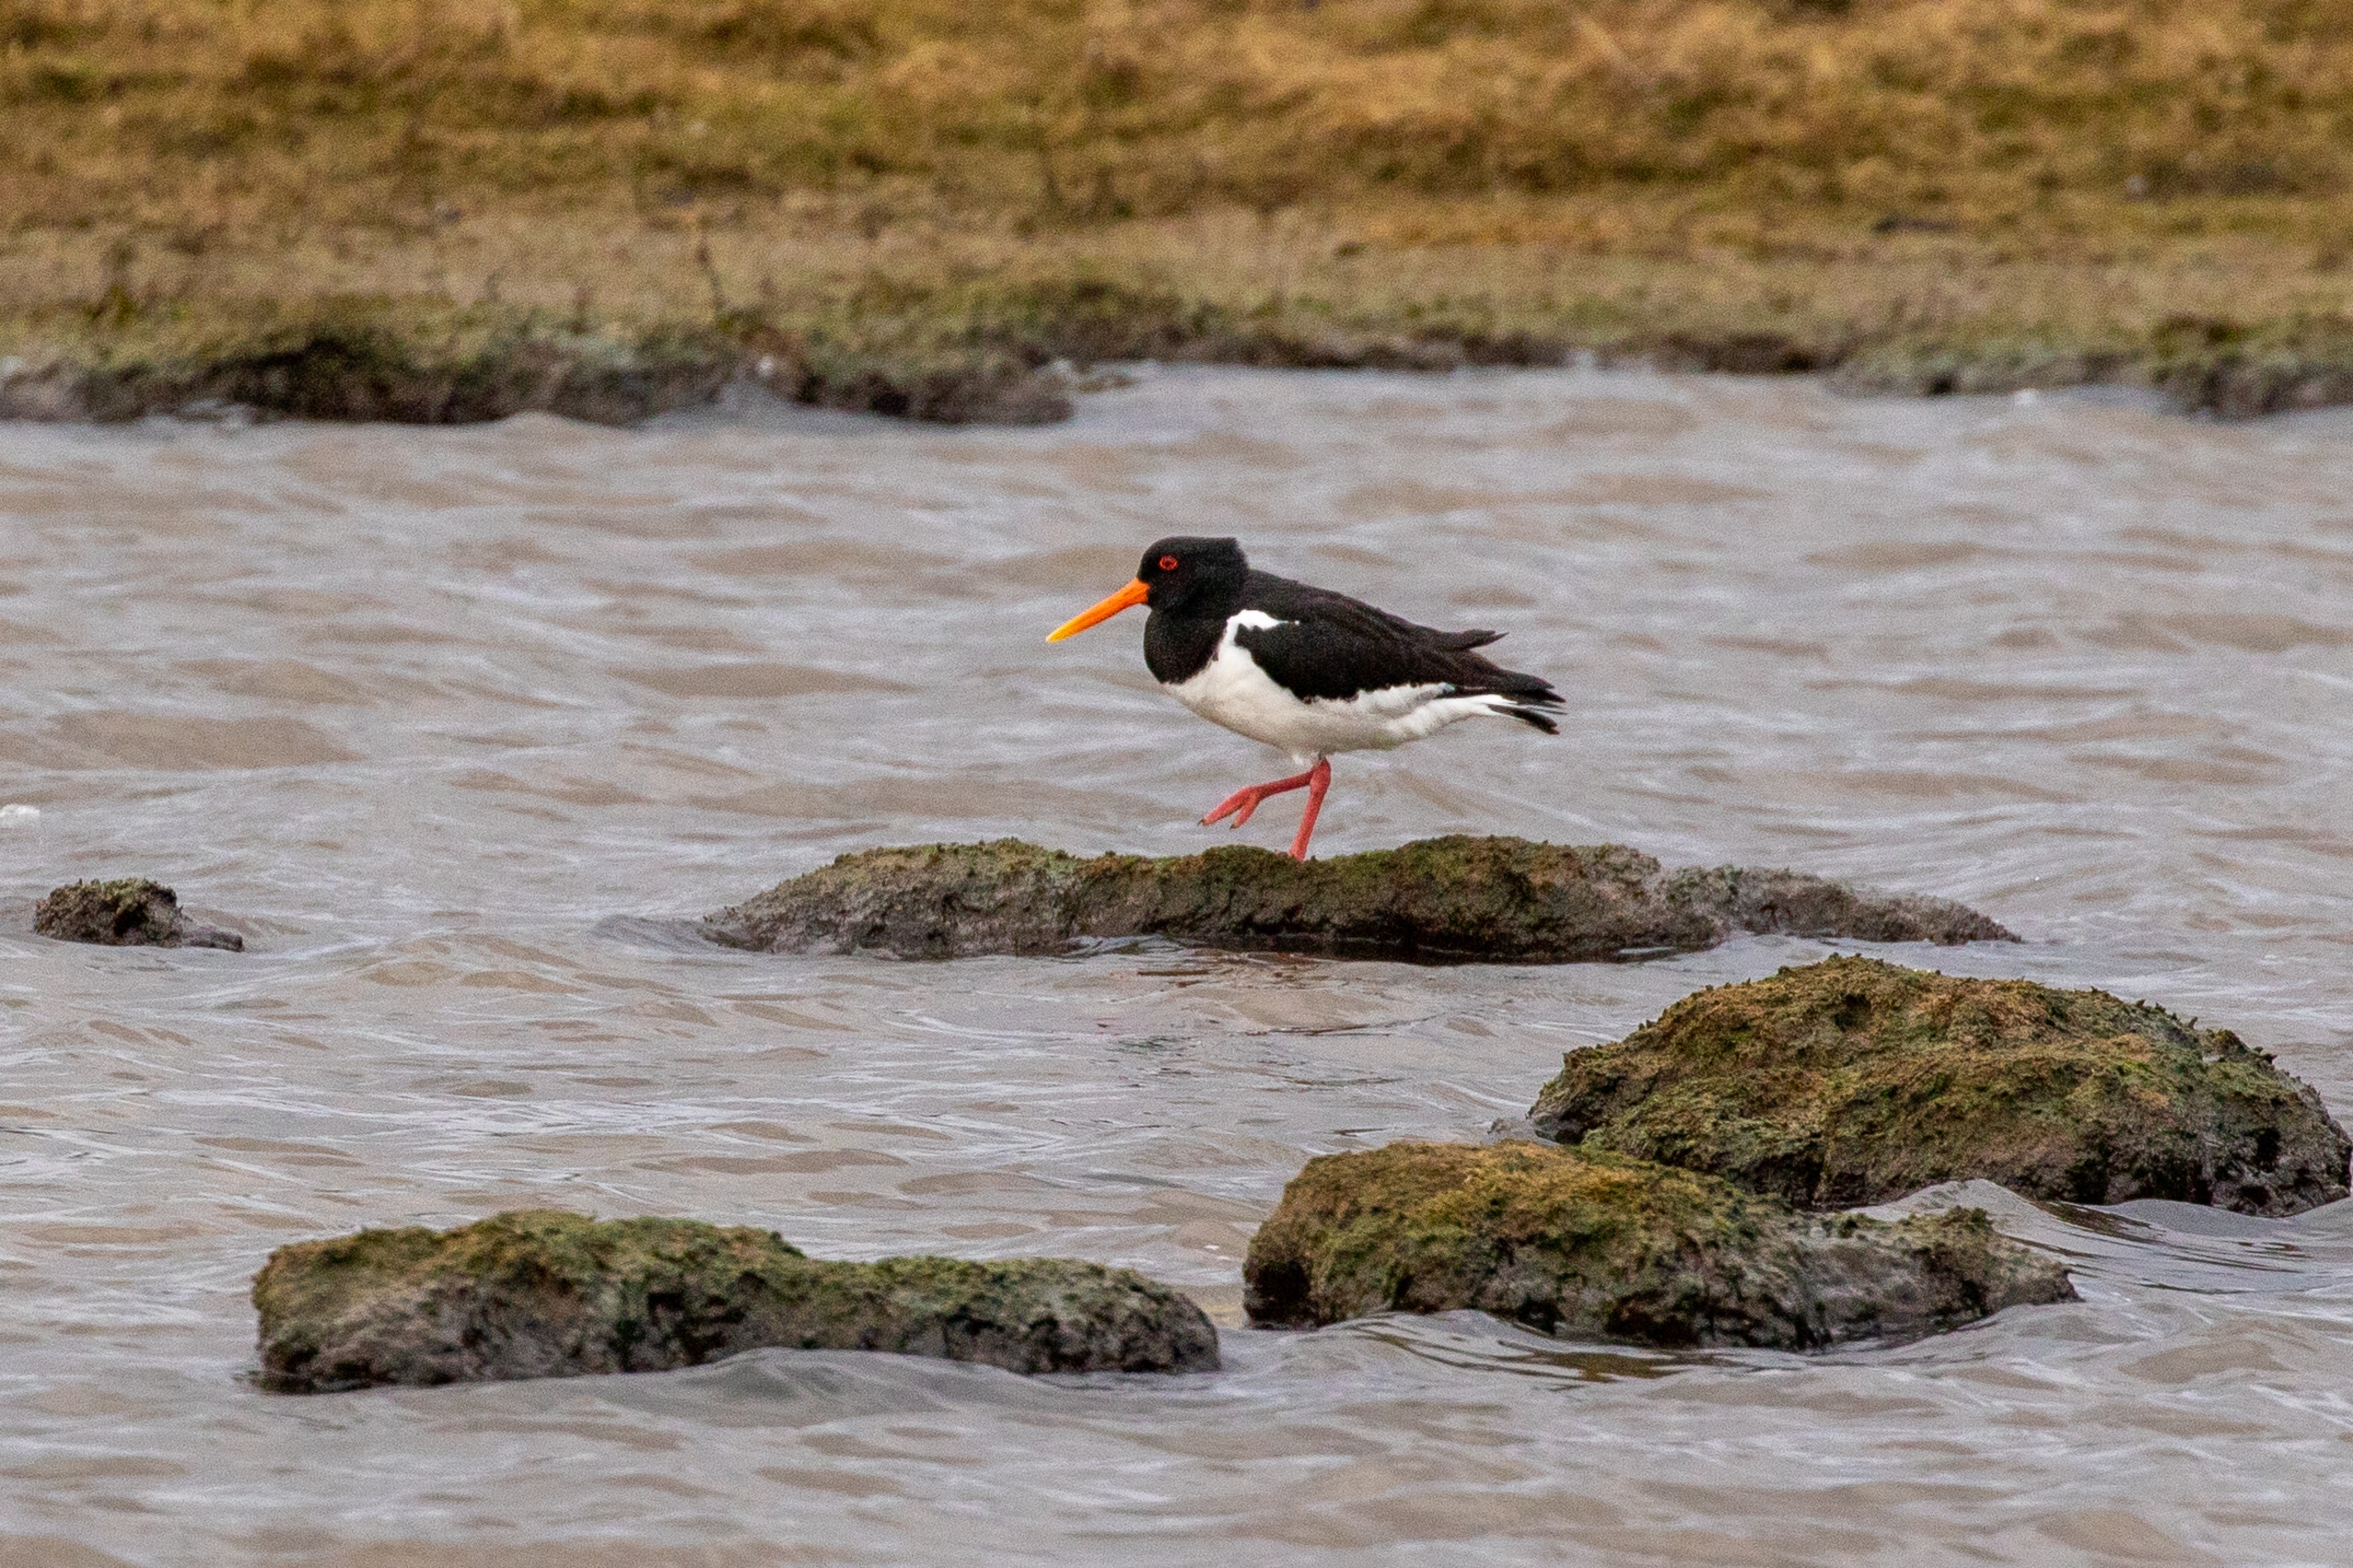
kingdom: Animalia
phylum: Chordata
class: Aves
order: Charadriiformes
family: Haematopodidae
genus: Haematopus
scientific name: Haematopus ostralegus
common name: Strandskade
